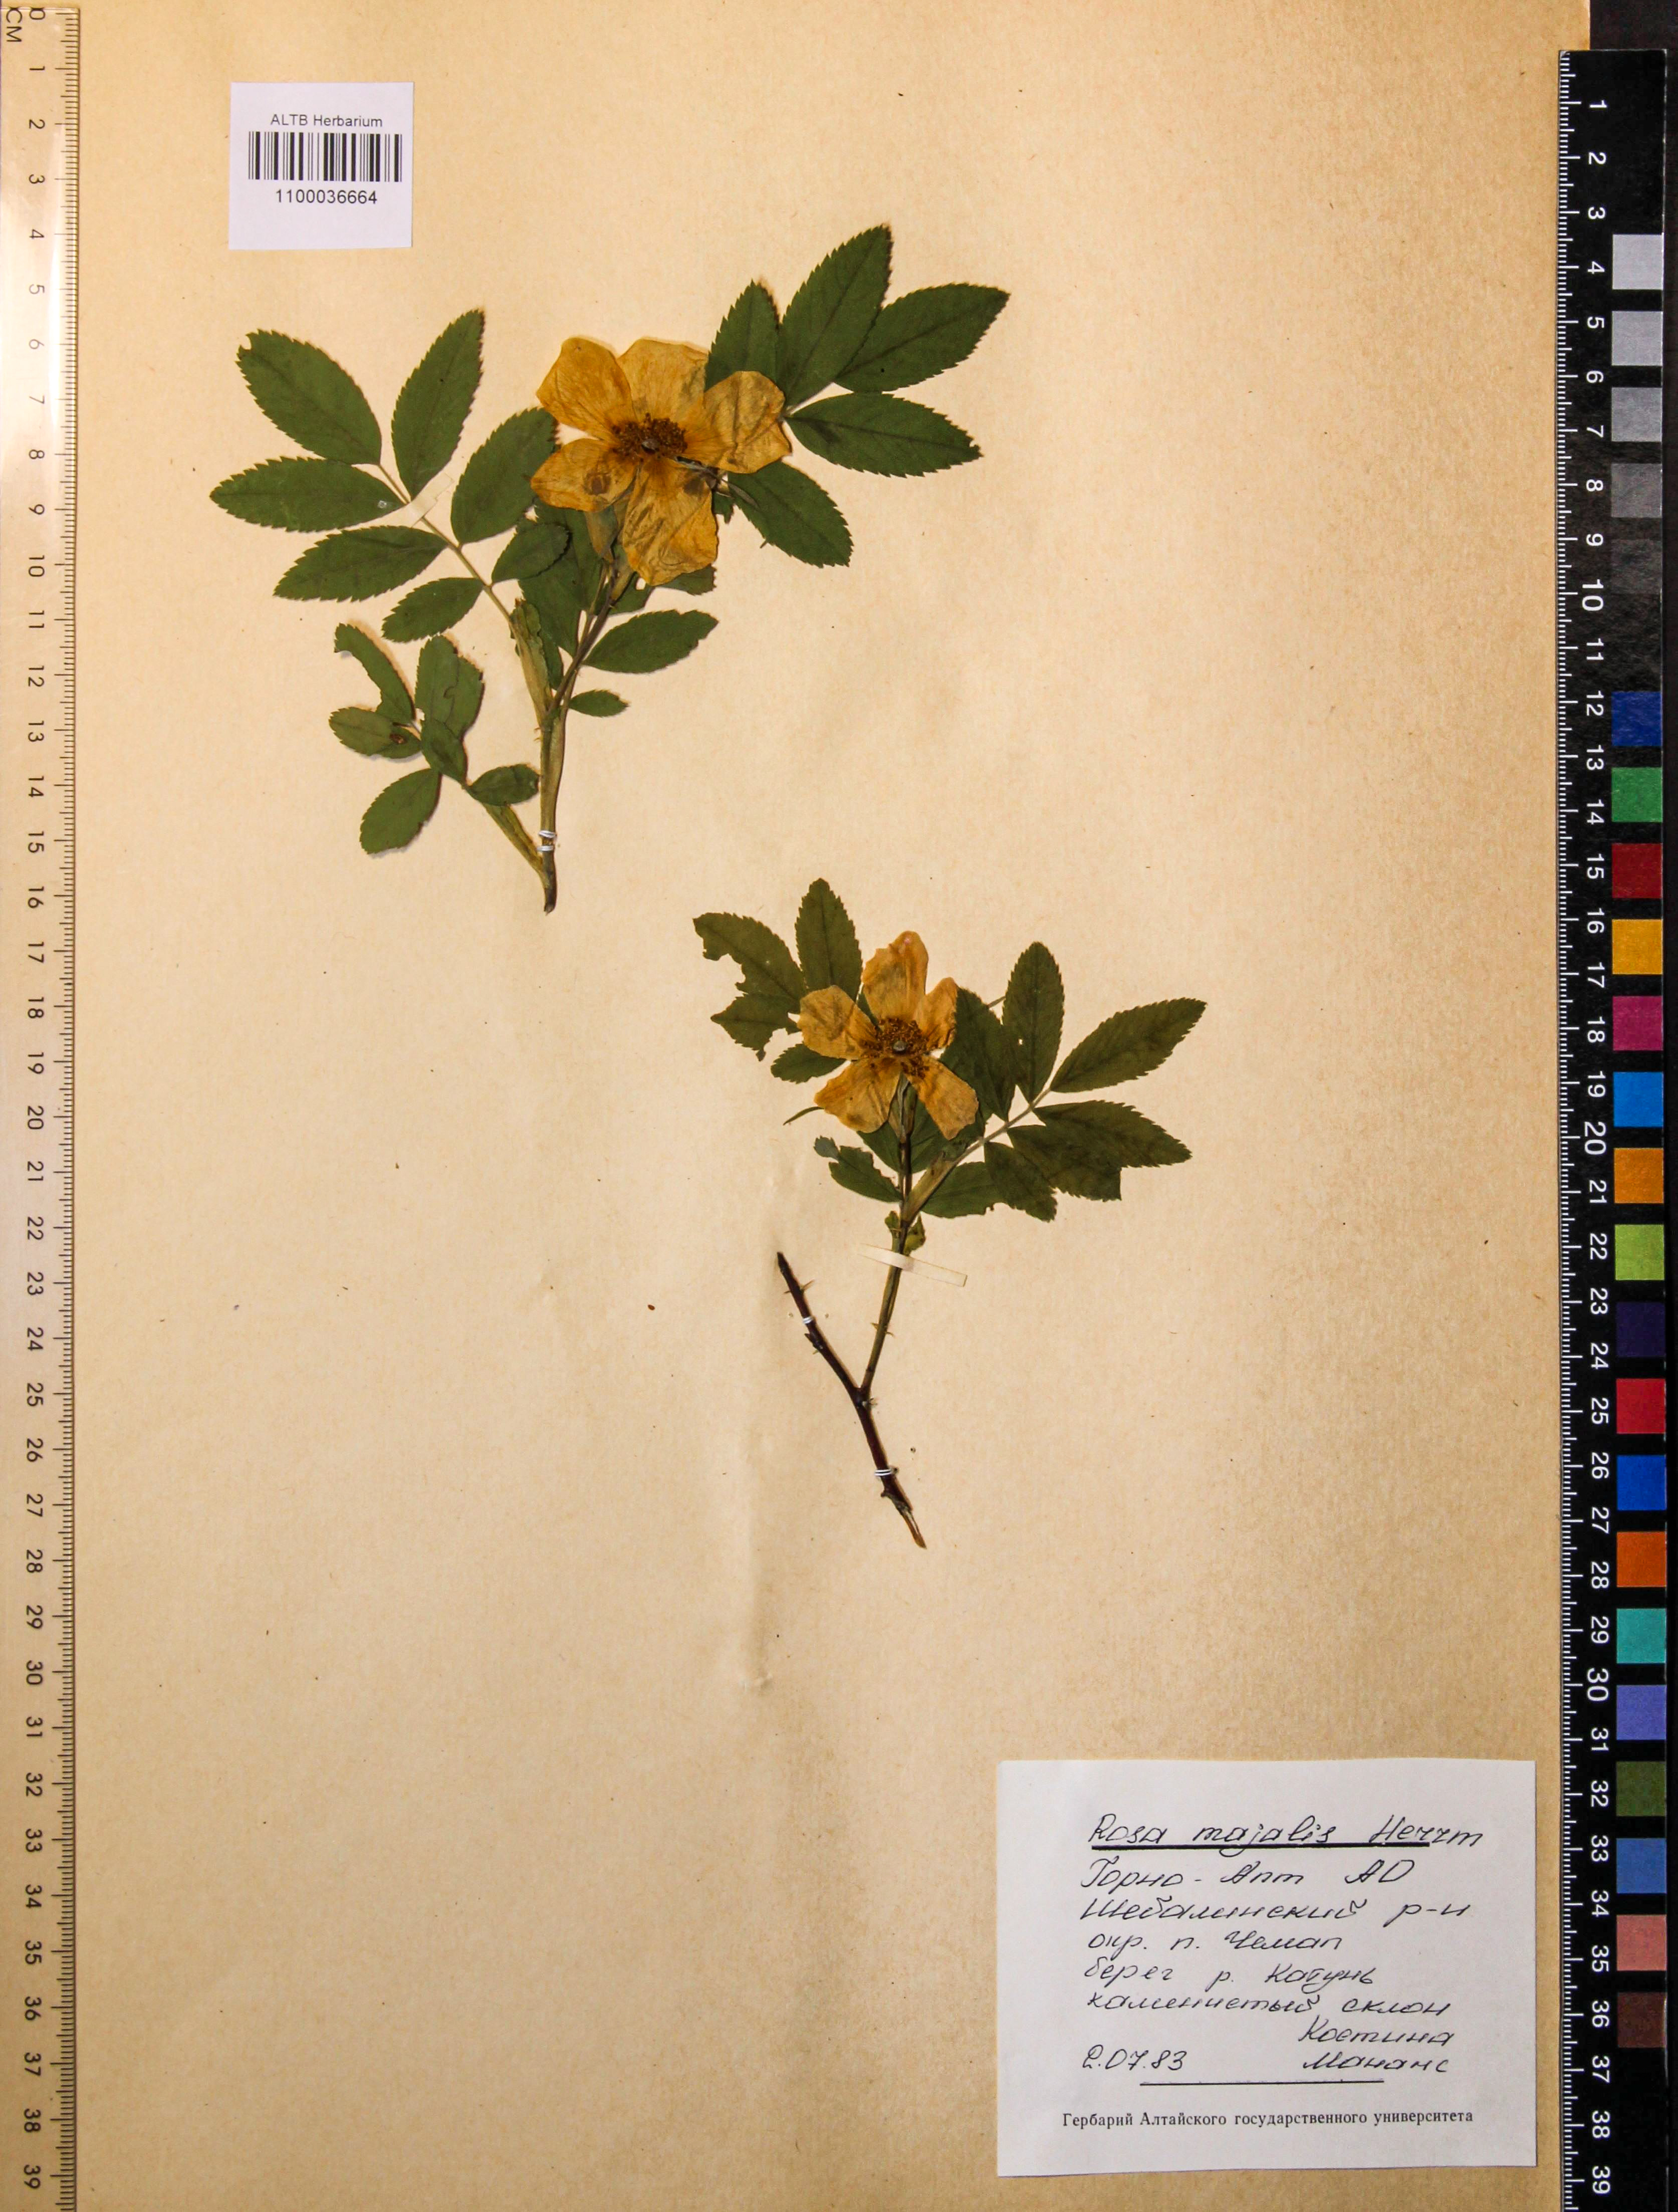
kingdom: Plantae
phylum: Tracheophyta
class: Magnoliopsida
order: Rosales
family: Rosaceae
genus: Rosa
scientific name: Rosa majalis
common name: Cinnamon rose
